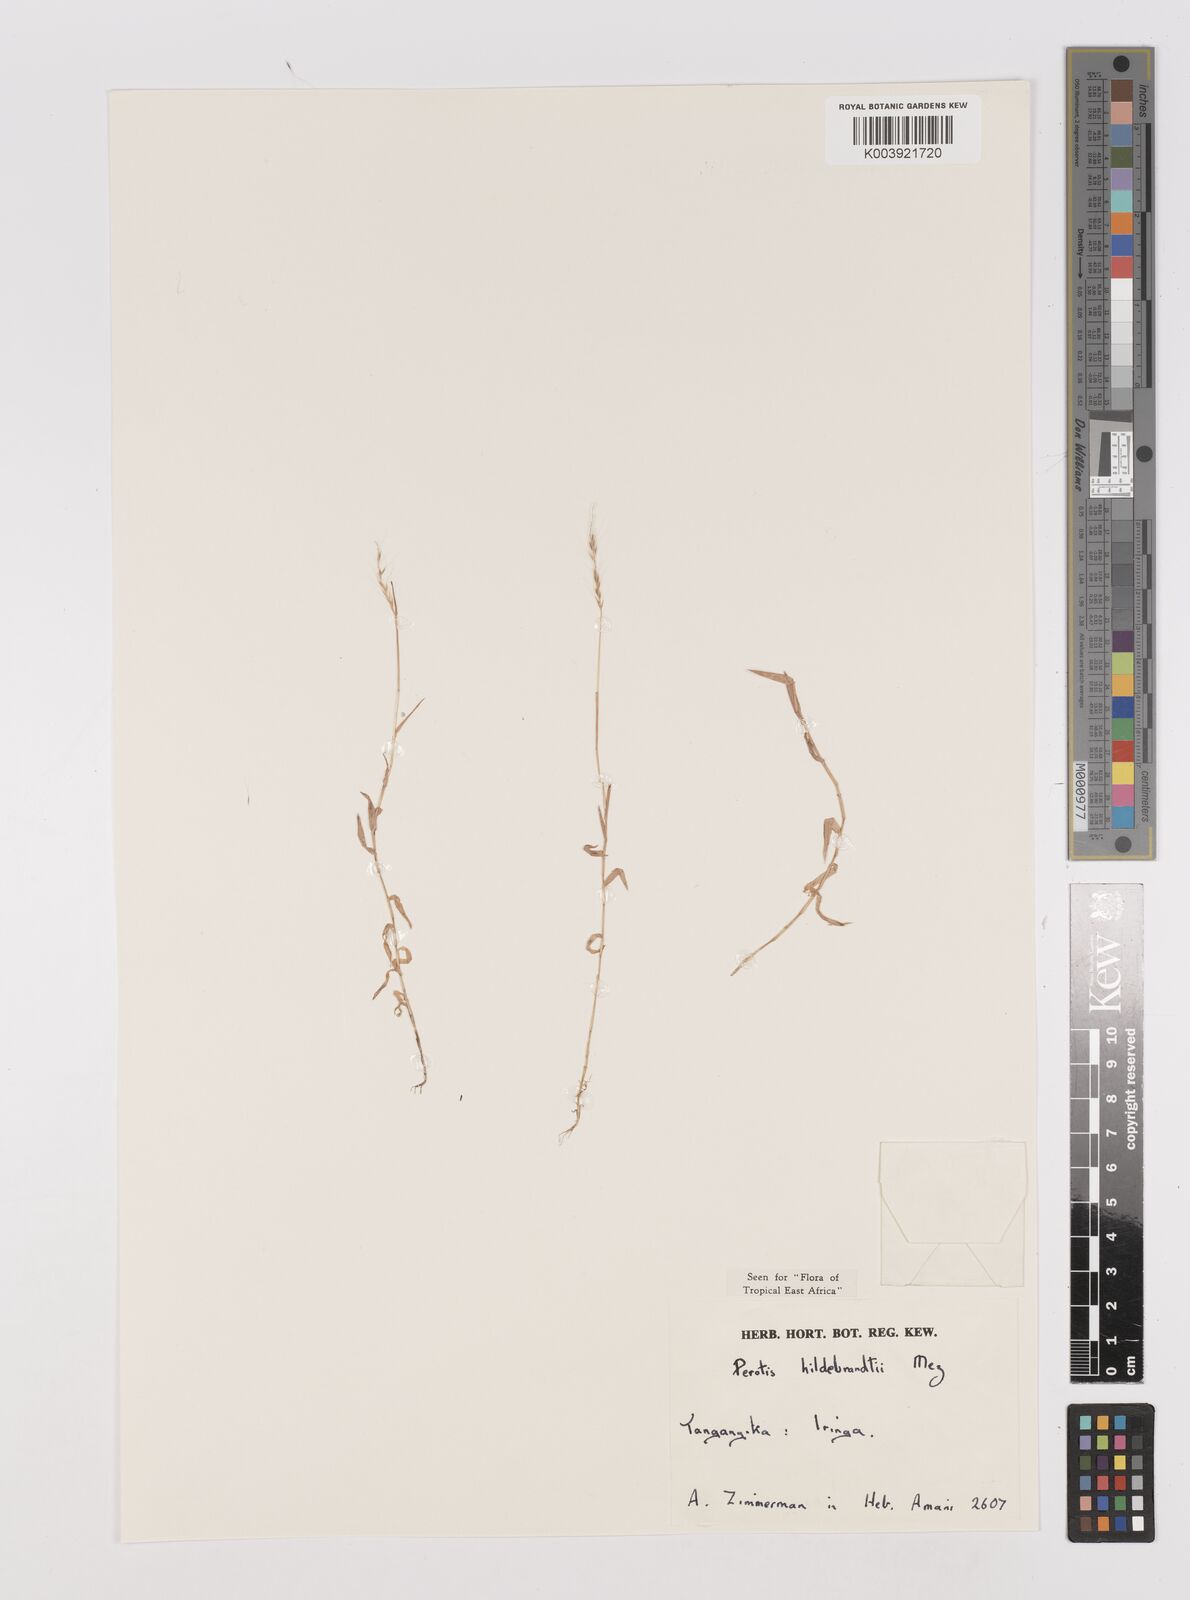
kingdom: Plantae
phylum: Tracheophyta
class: Liliopsida
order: Poales
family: Poaceae
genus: Perotis
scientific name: Perotis hildebrandtii
